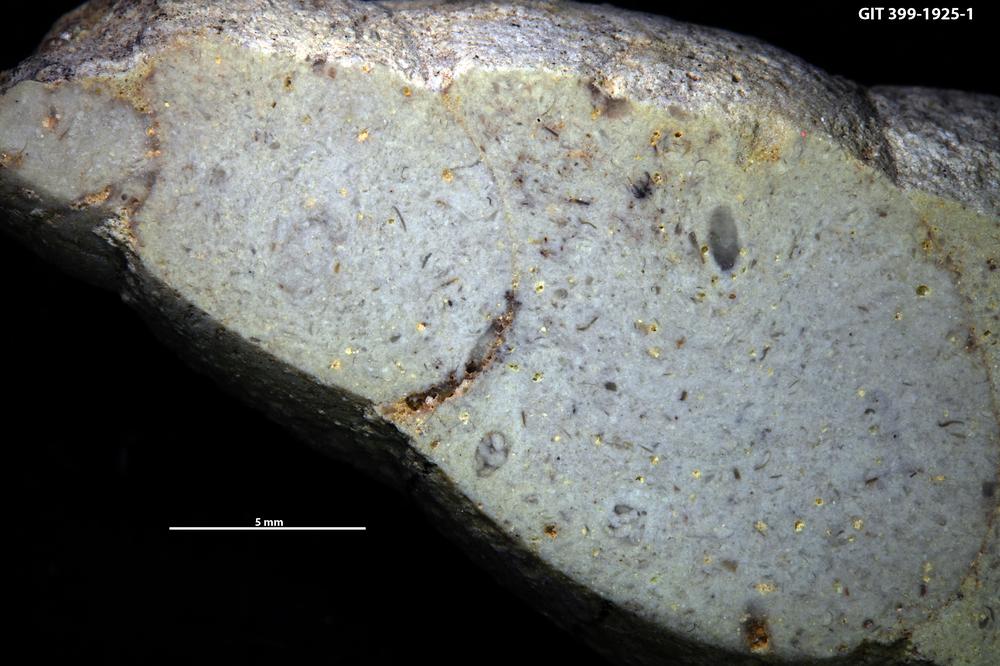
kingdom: Animalia
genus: Tubularina
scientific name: Tubularina
